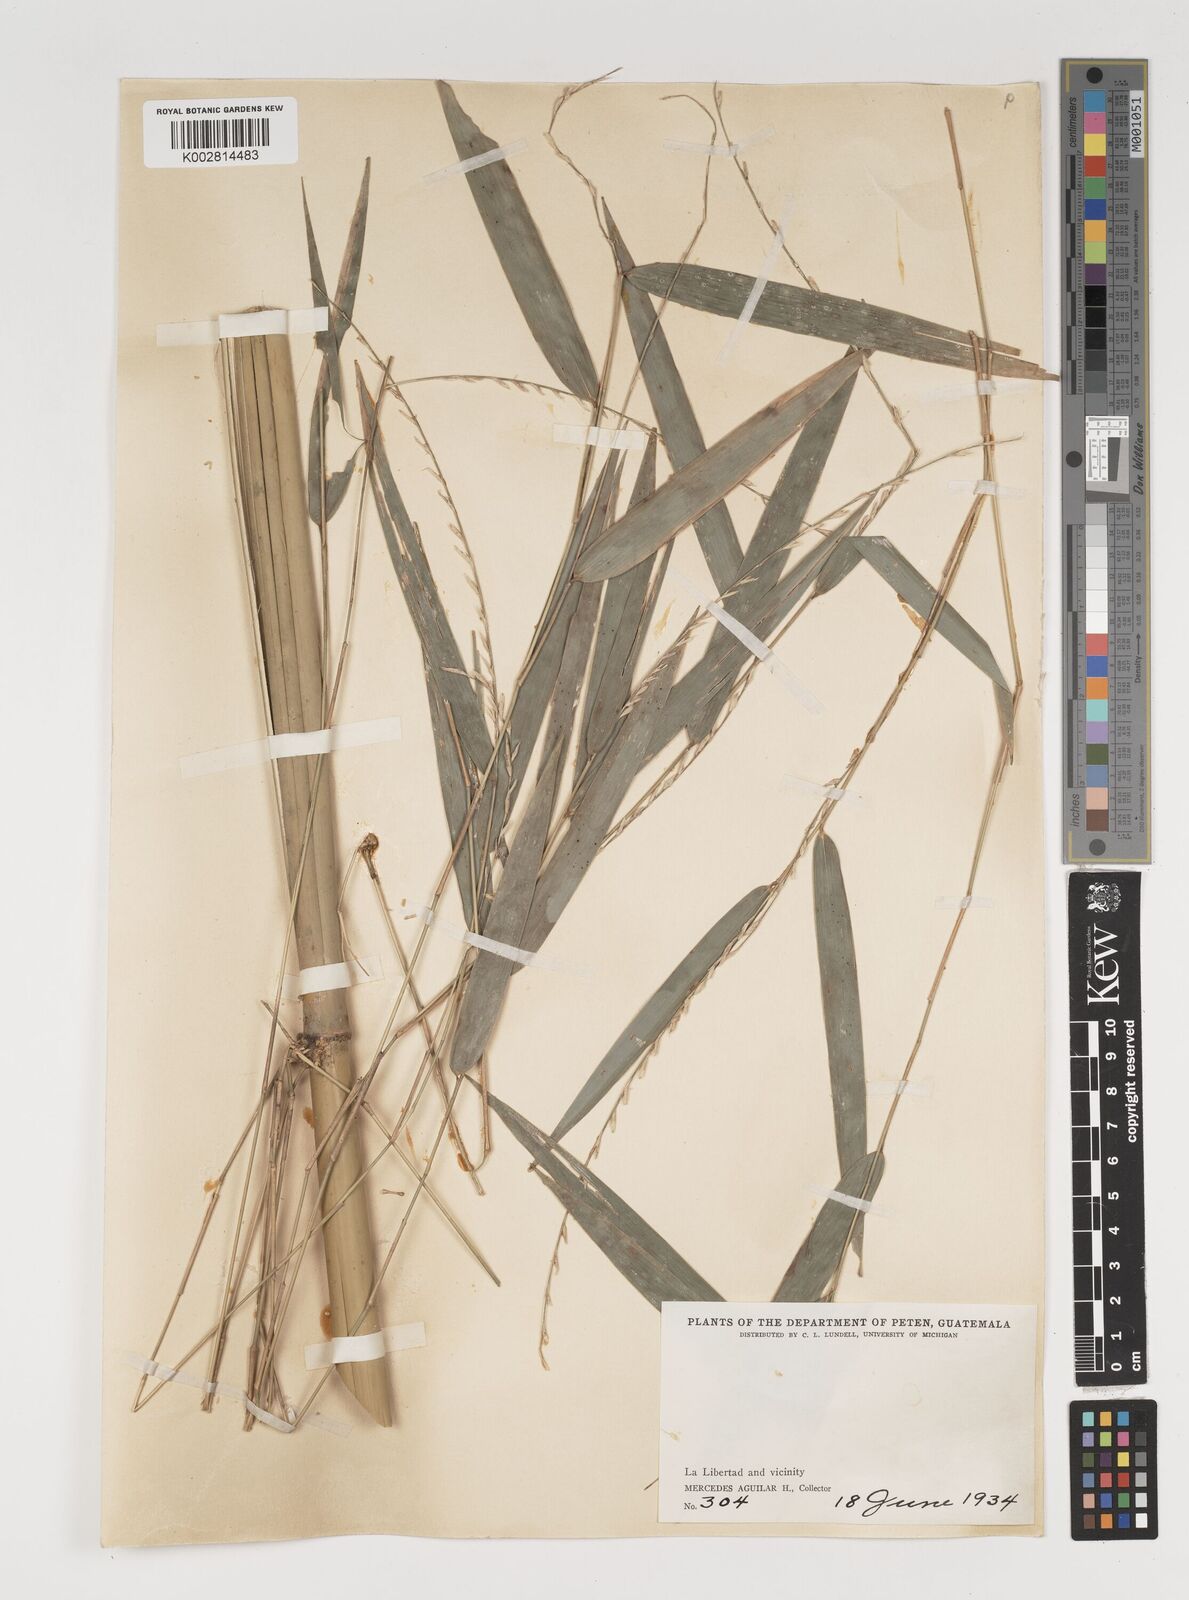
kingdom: Plantae
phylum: Tracheophyta
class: Liliopsida
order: Poales
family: Poaceae
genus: Rhipidocladum
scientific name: Rhipidocladum pittieri
